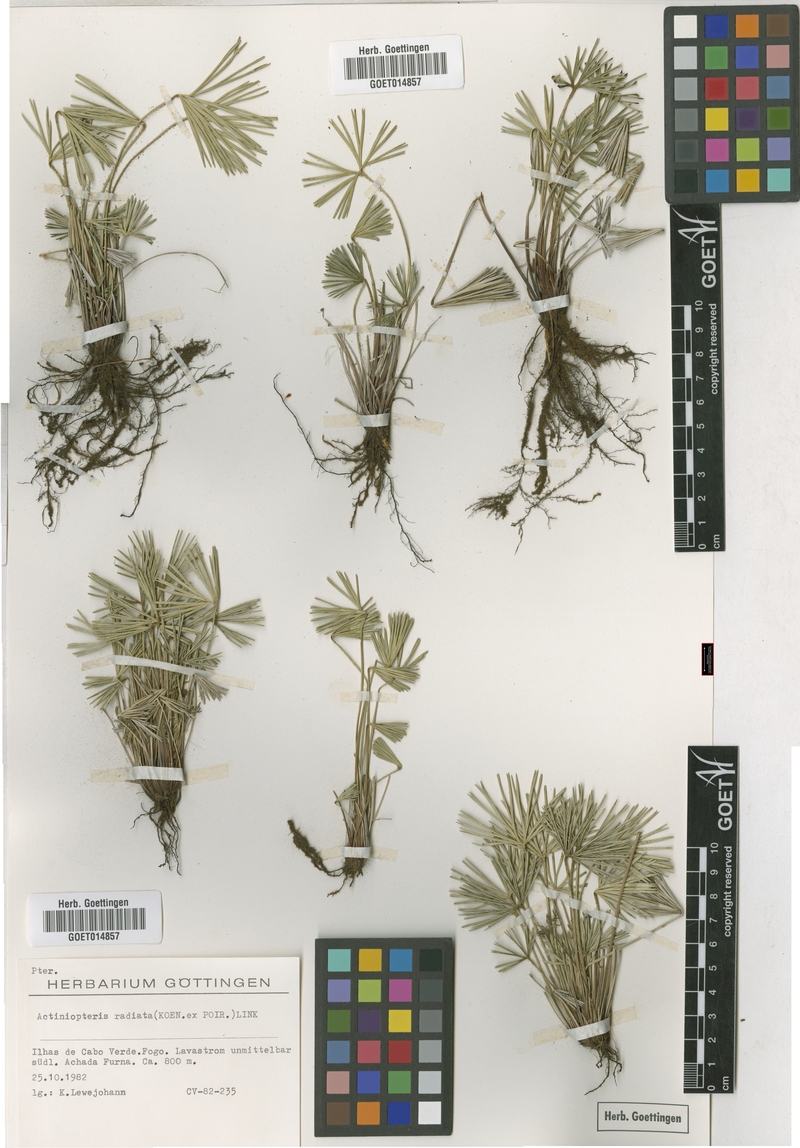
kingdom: Plantae
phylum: Tracheophyta
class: Polypodiopsida
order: Polypodiales
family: Pteridaceae
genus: Actiniopteris
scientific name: Actiniopteris radiata
